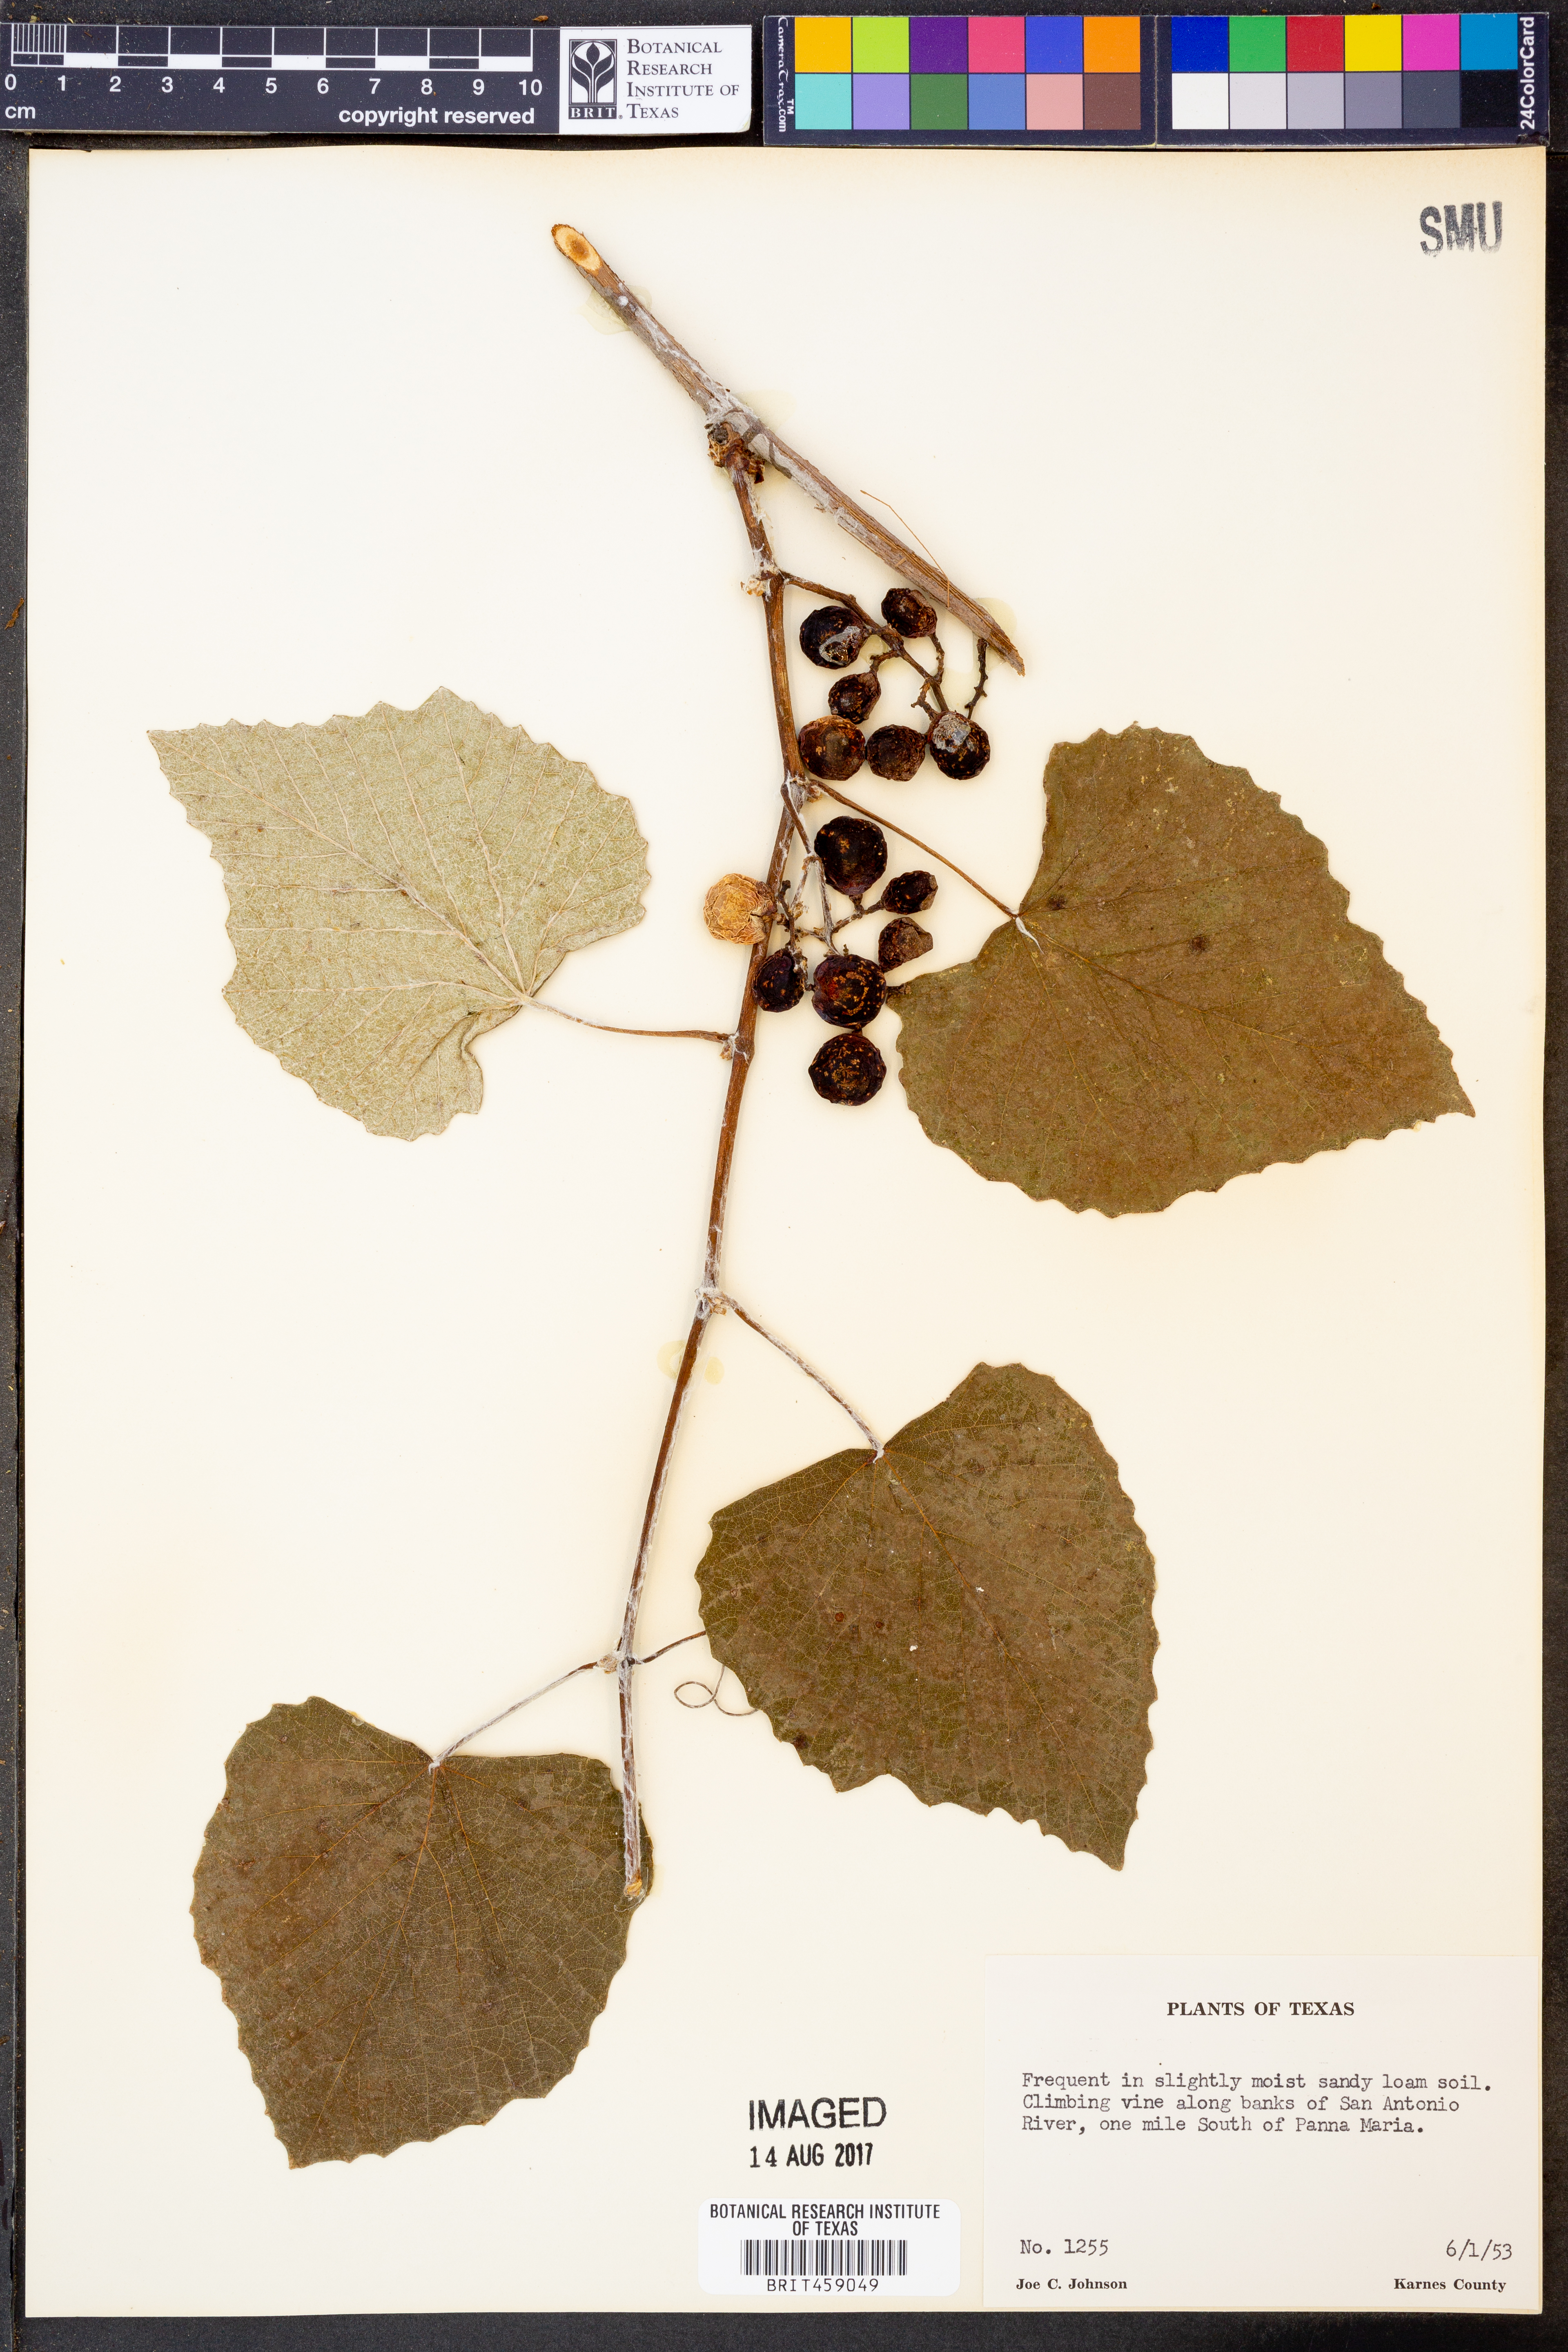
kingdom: Plantae
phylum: Tracheophyta
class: Magnoliopsida
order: Vitales
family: Vitaceae
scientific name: Vitaceae
